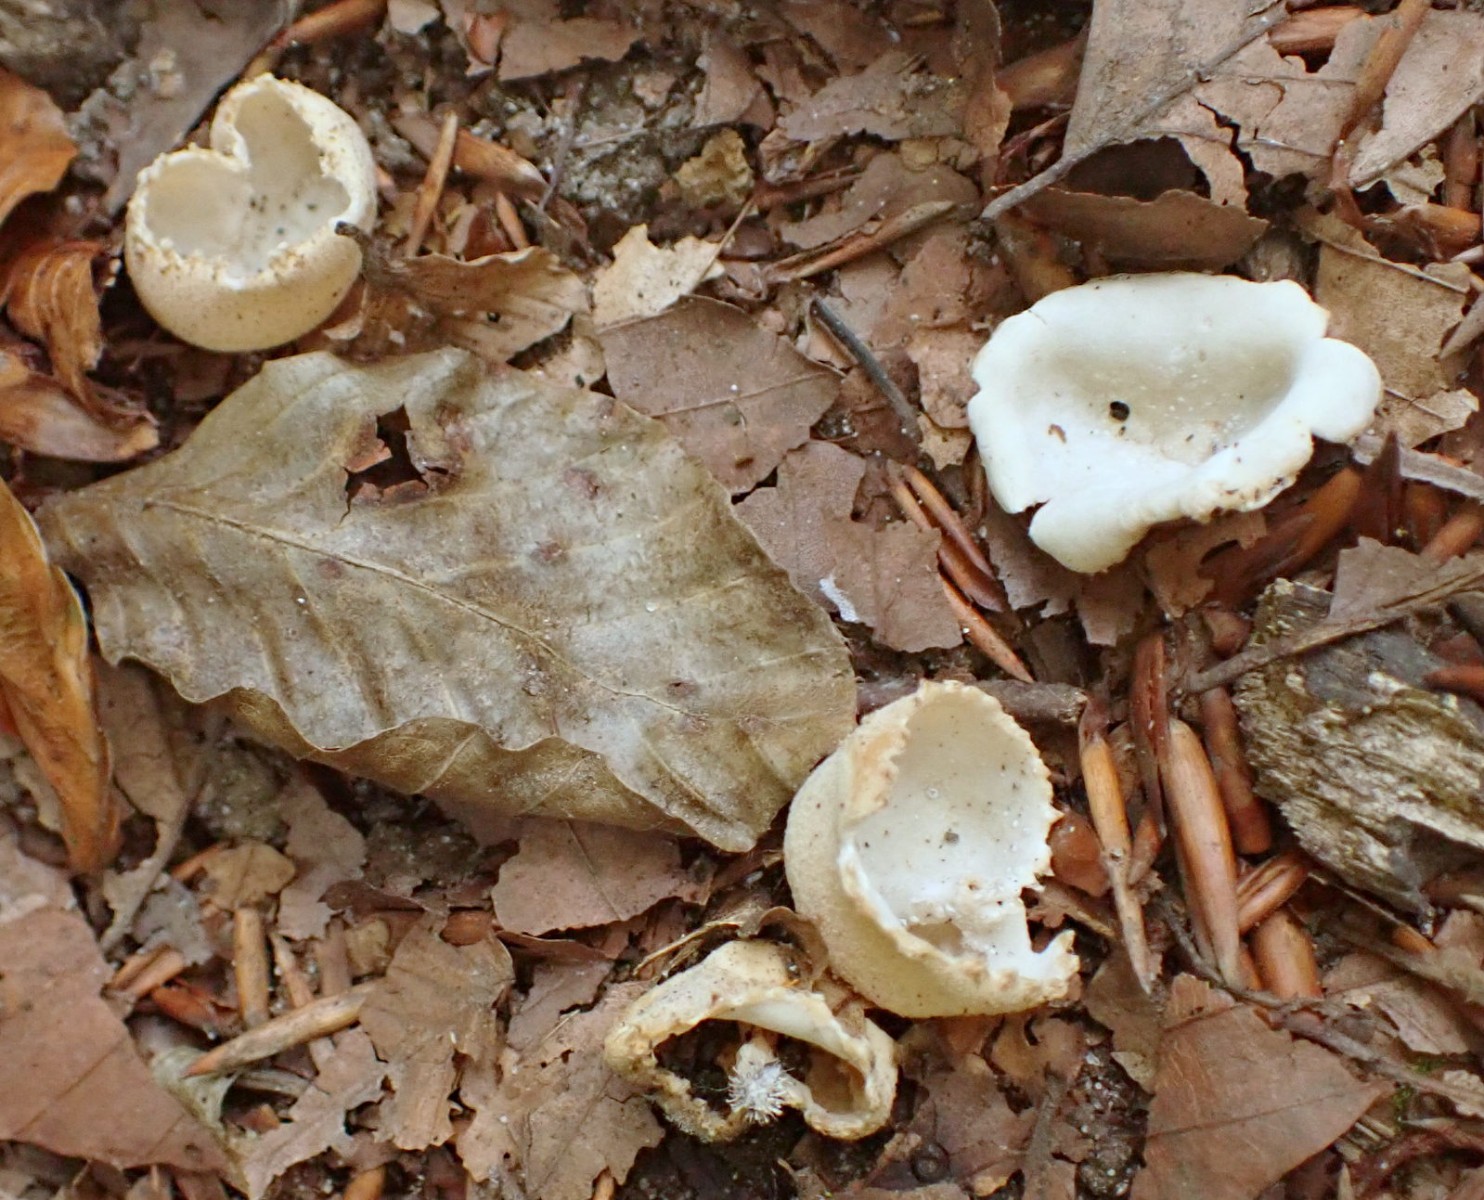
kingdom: Fungi
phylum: Ascomycota
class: Pezizomycetes
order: Pezizales
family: Pyronemataceae
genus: Tarzetta
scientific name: Tarzetta cupularis
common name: gulbrun pokalbæger
